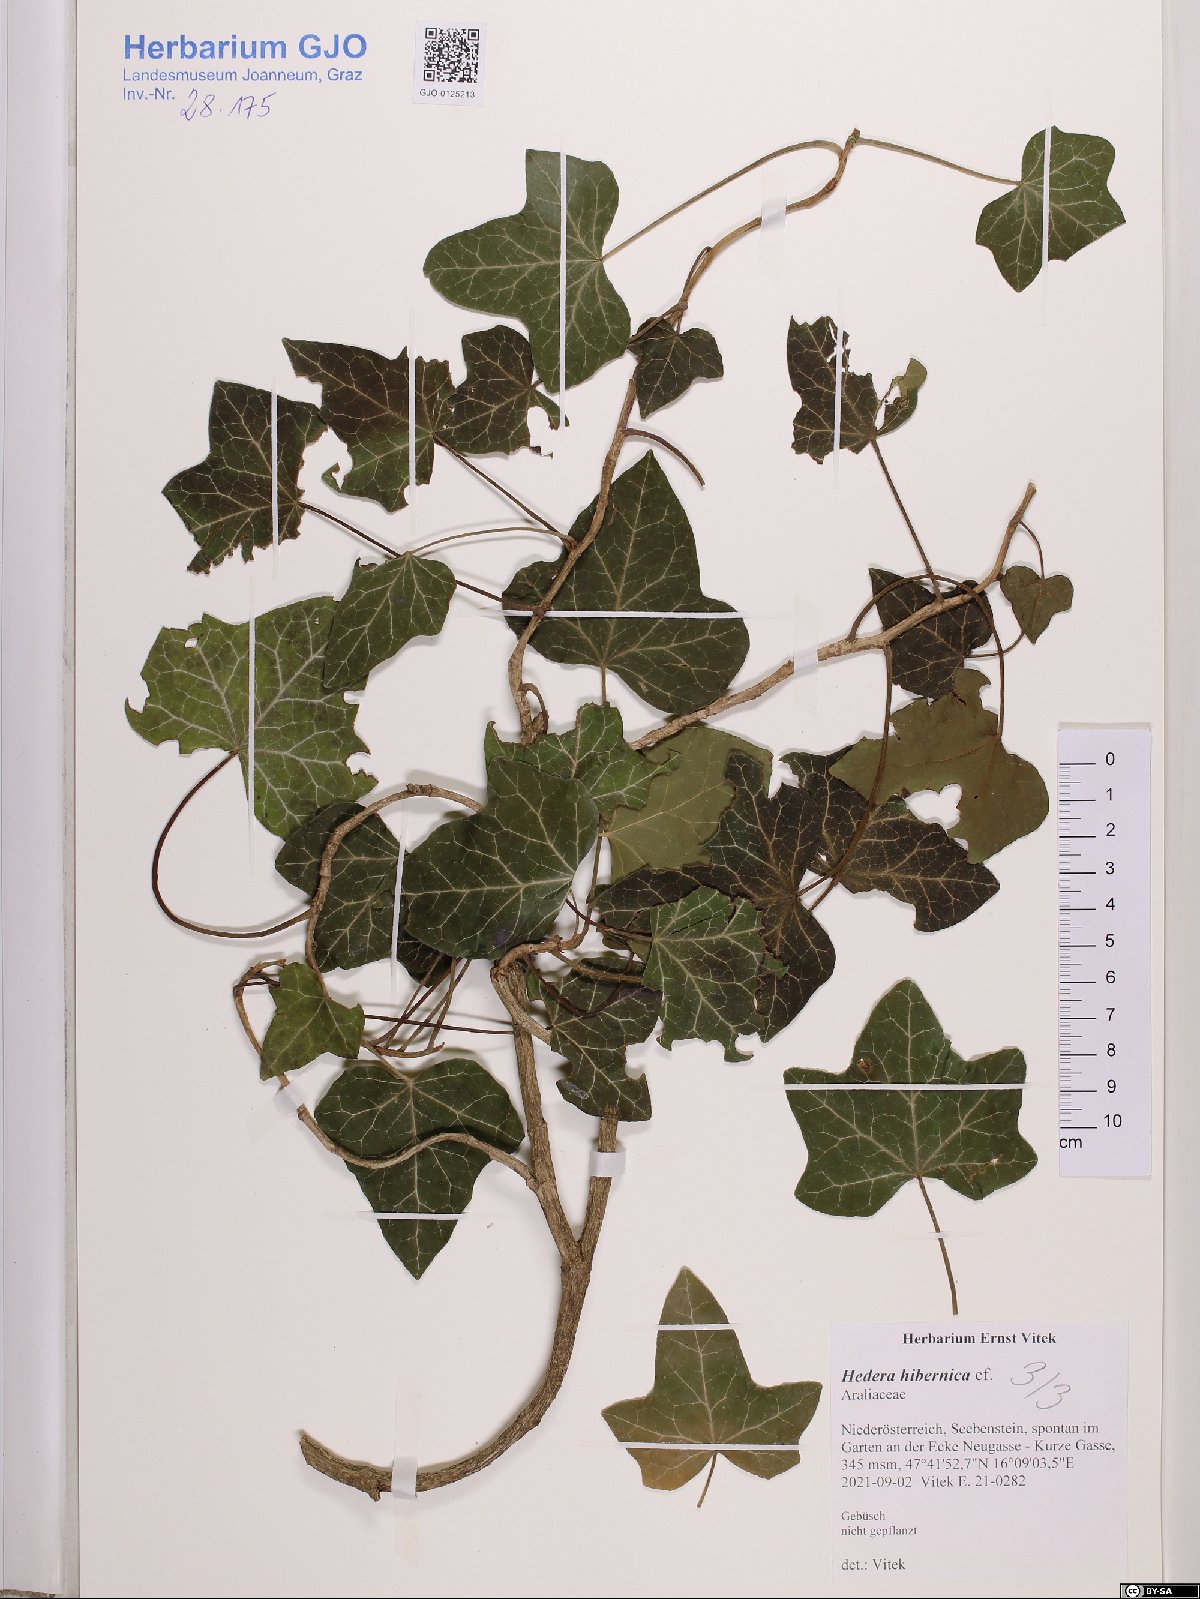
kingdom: Plantae
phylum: Tracheophyta
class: Magnoliopsida
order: Apiales
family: Araliaceae
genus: Hedera
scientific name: Hedera hibernica
